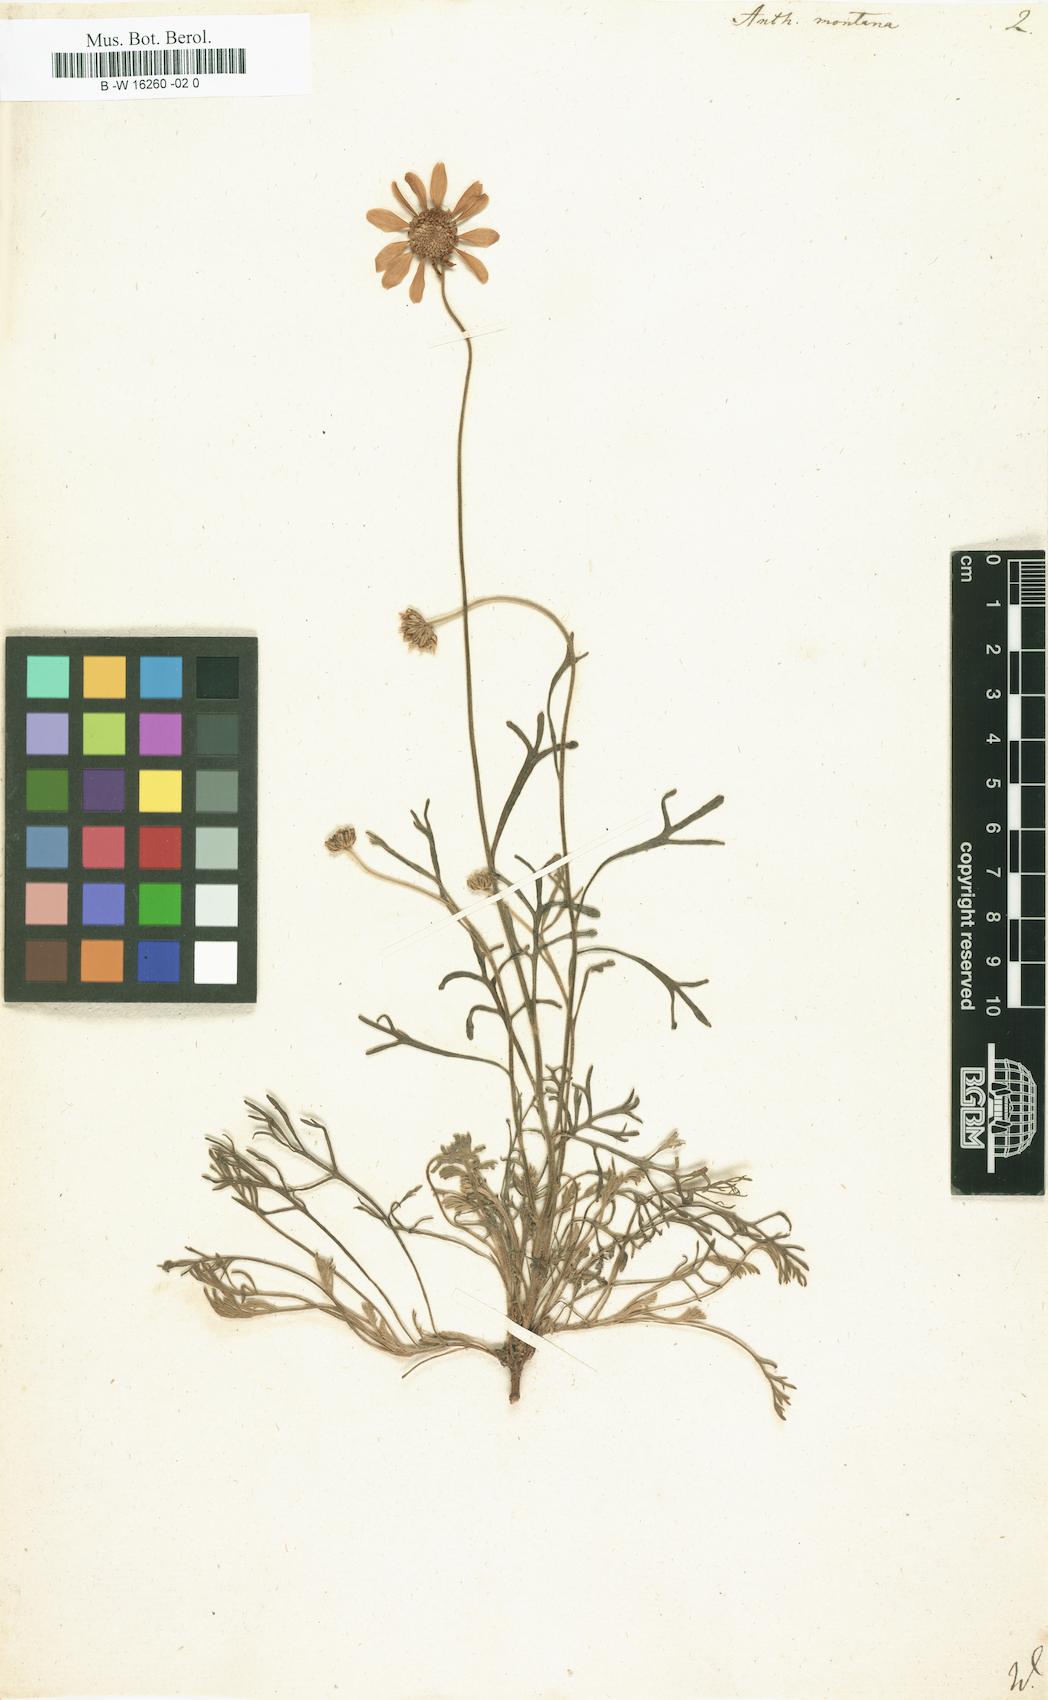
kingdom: Plantae
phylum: Tracheophyta
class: Magnoliopsida
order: Asterales
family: Asteraceae
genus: Anthemis
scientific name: Anthemis
